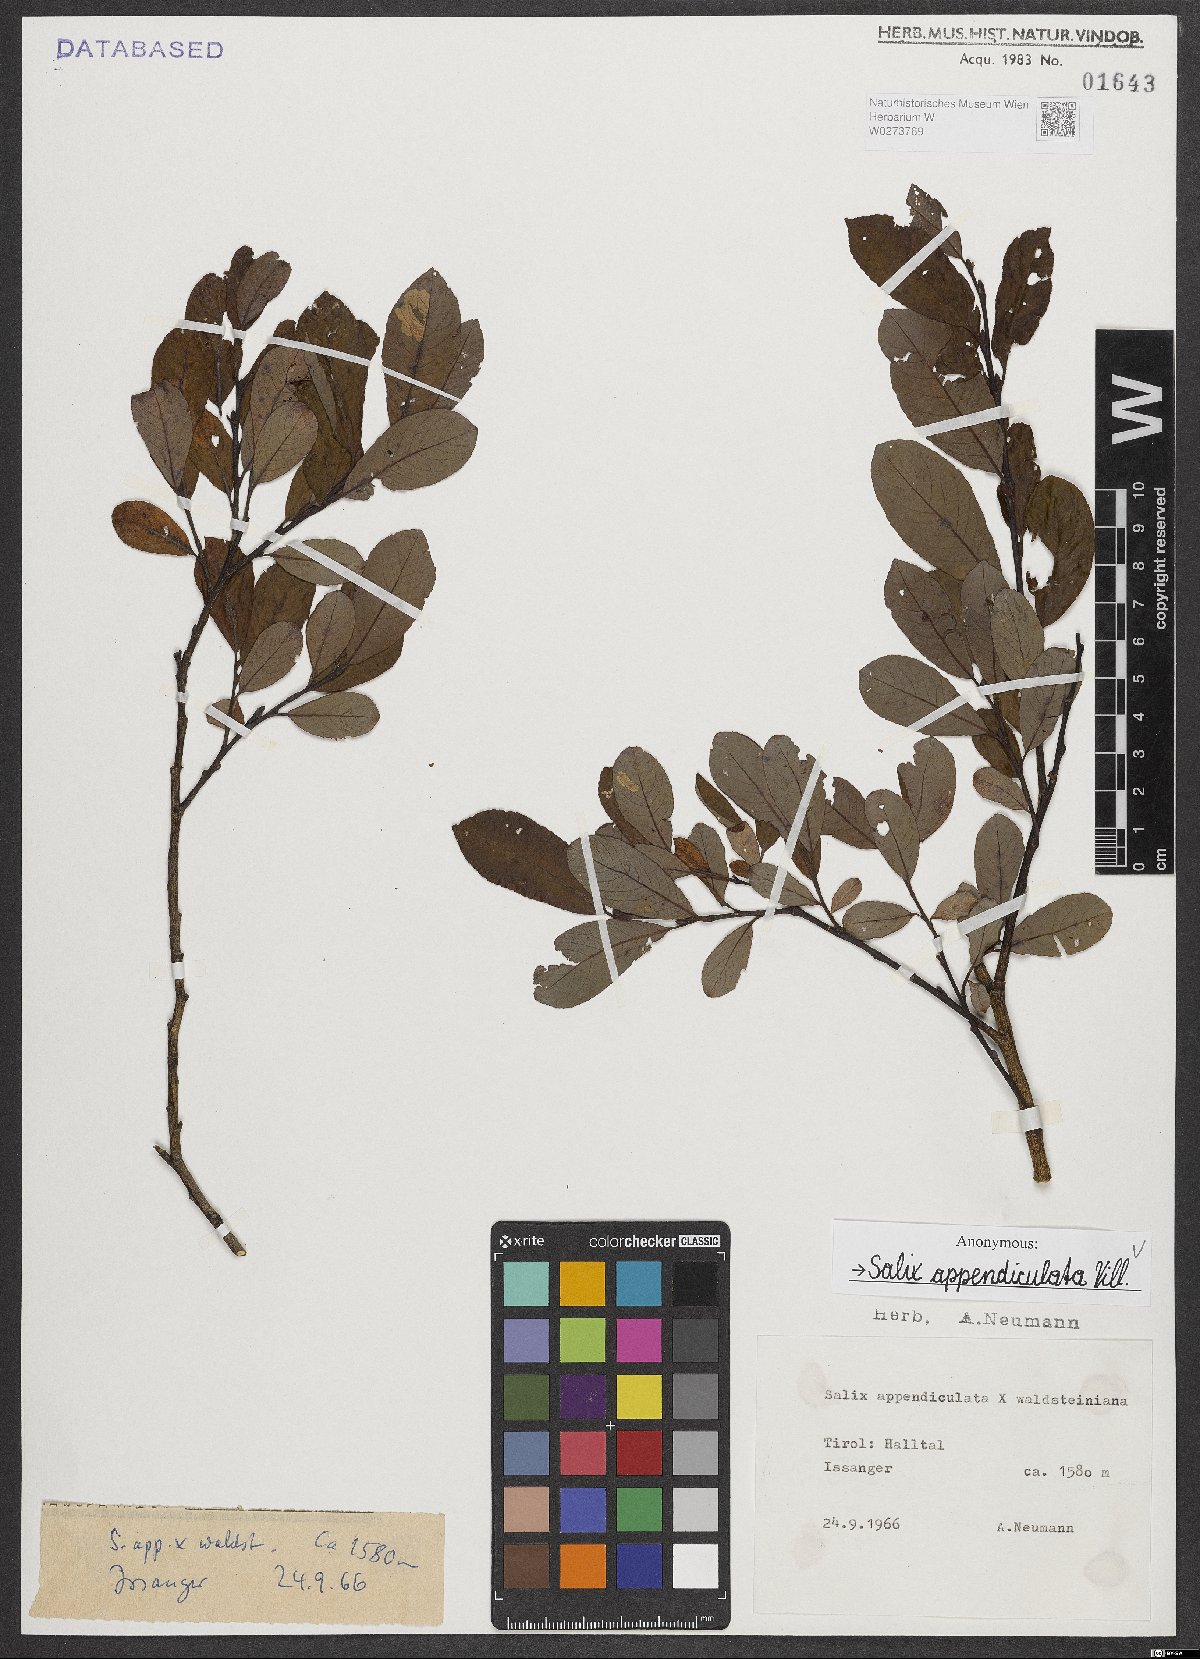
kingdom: Plantae
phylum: Tracheophyta
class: Magnoliopsida
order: Malpighiales
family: Salicaceae
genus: Salix
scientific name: Salix appendiculata
